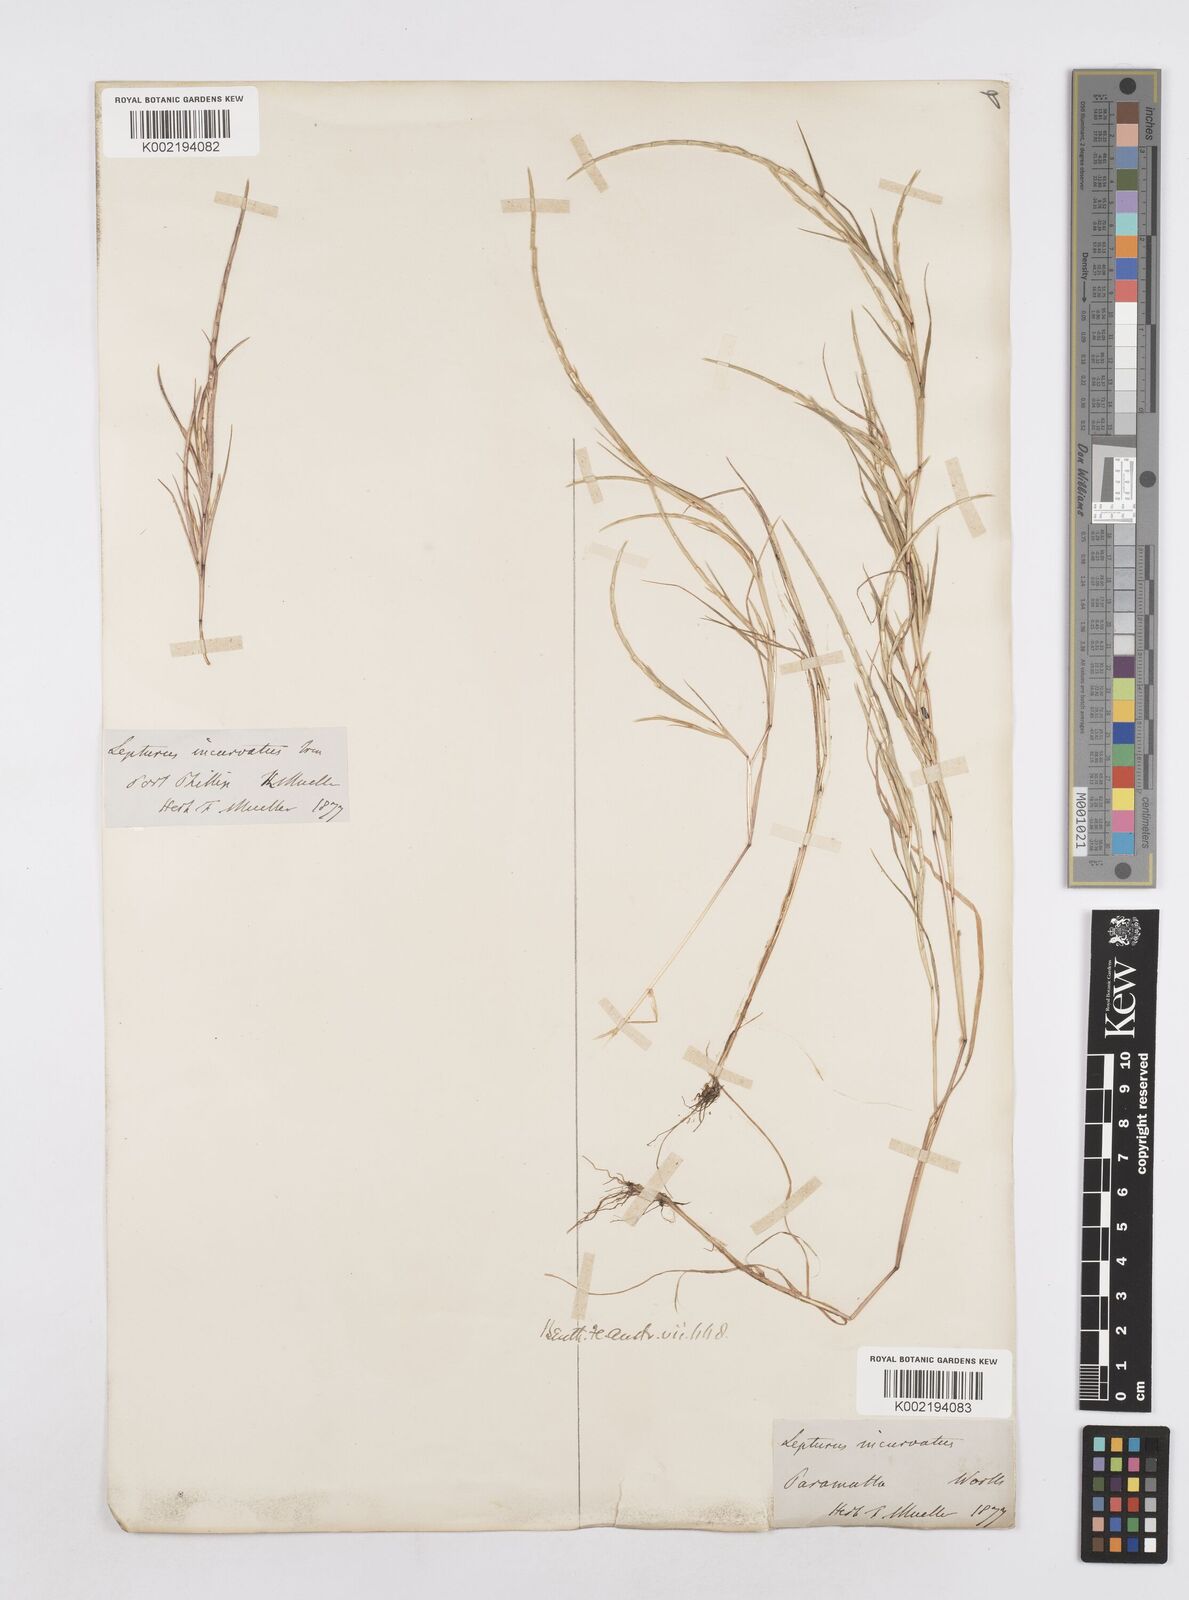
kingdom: Plantae
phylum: Tracheophyta
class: Liliopsida
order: Poales
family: Poaceae
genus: Parapholis
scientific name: Parapholis incurva
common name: Curved sicklegrass
